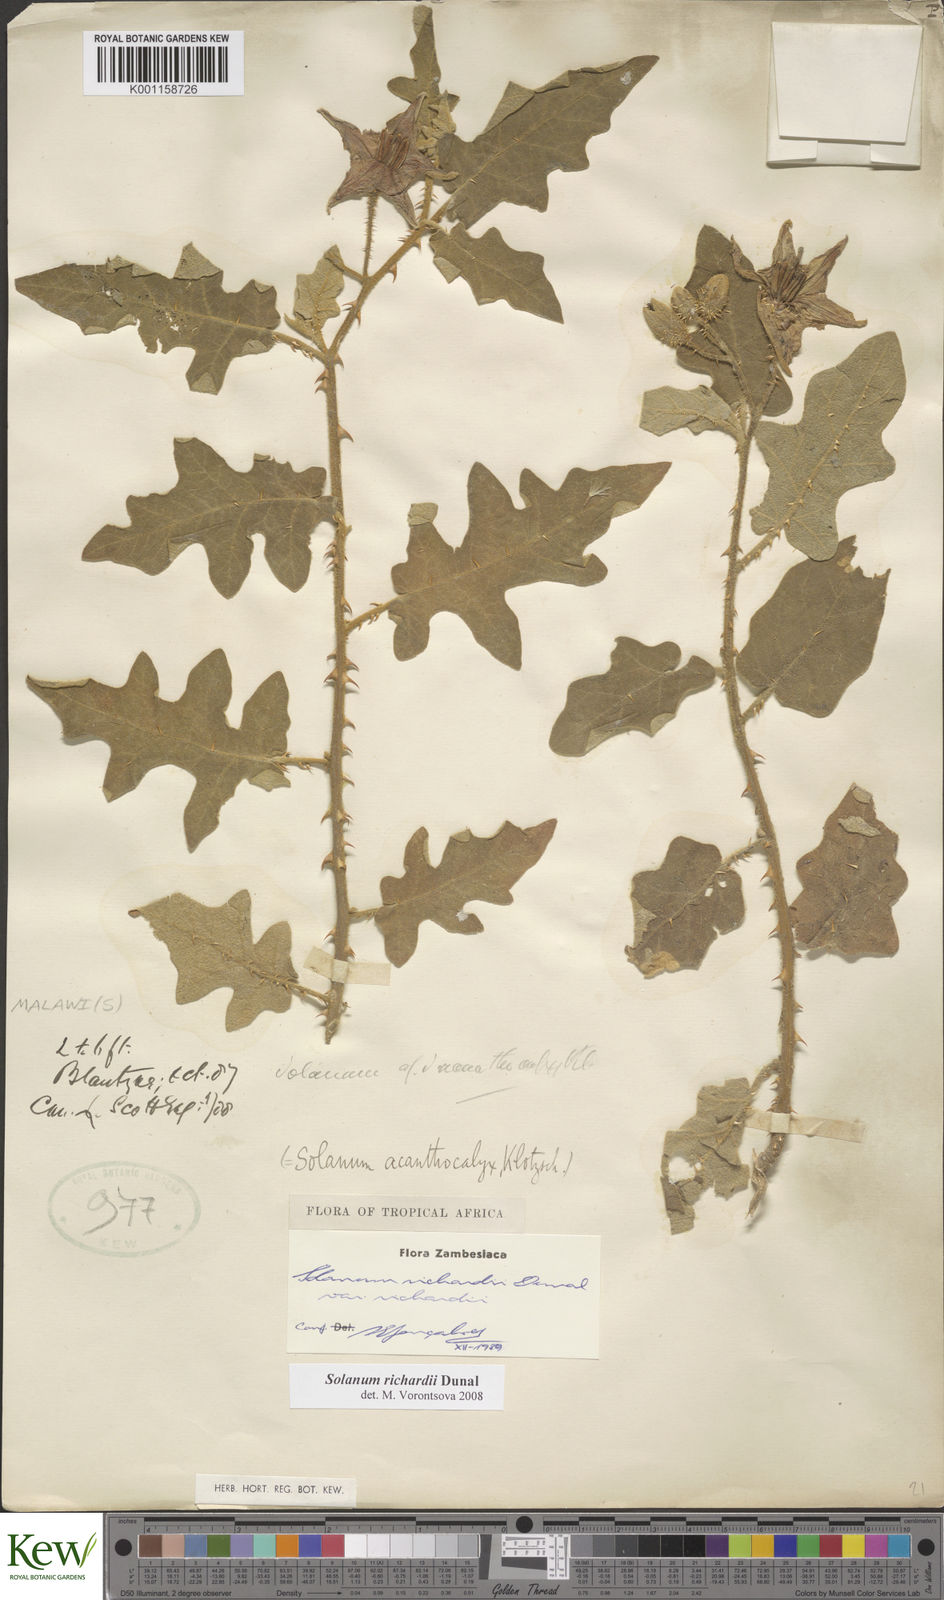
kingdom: Plantae
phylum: Tracheophyta
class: Magnoliopsida
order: Solanales
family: Solanaceae
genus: Solanum
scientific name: Solanum richardii
